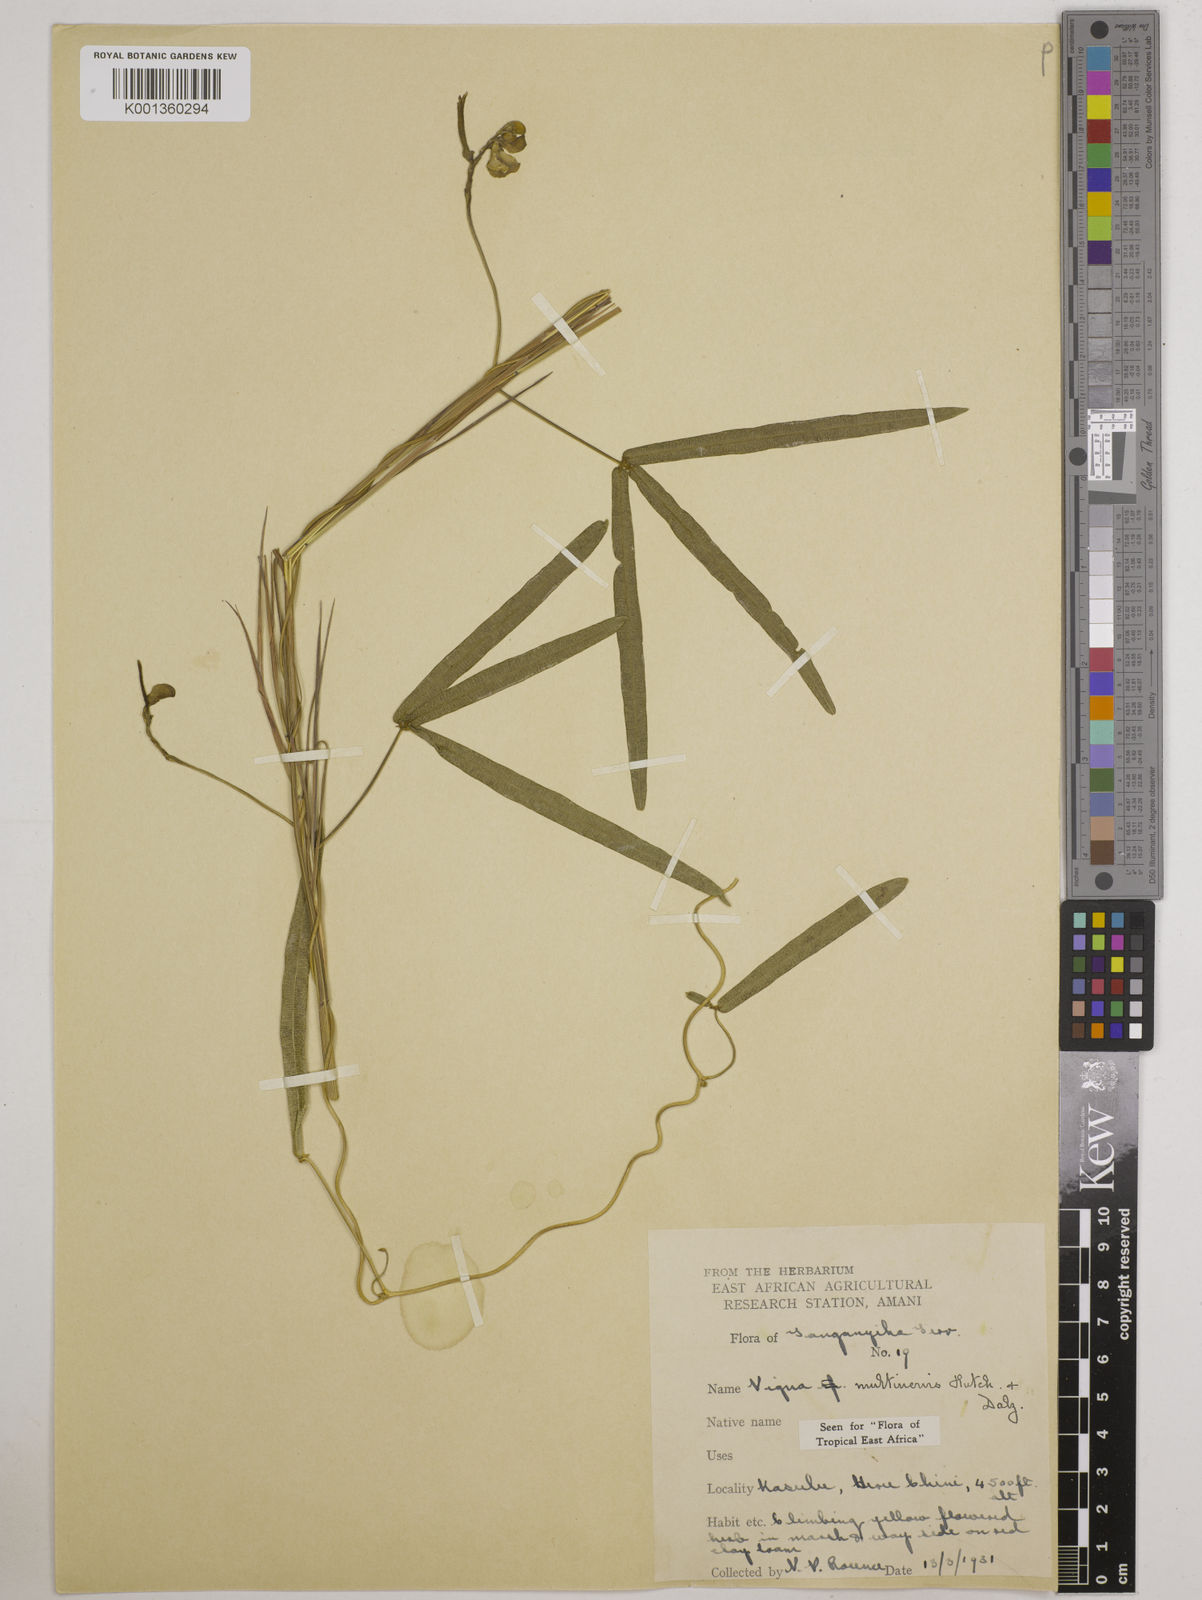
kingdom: Plantae
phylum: Tracheophyta
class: Magnoliopsida
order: Fabales
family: Fabaceae
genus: Vigna
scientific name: Vigna multinervis
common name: Fula-pulaar
